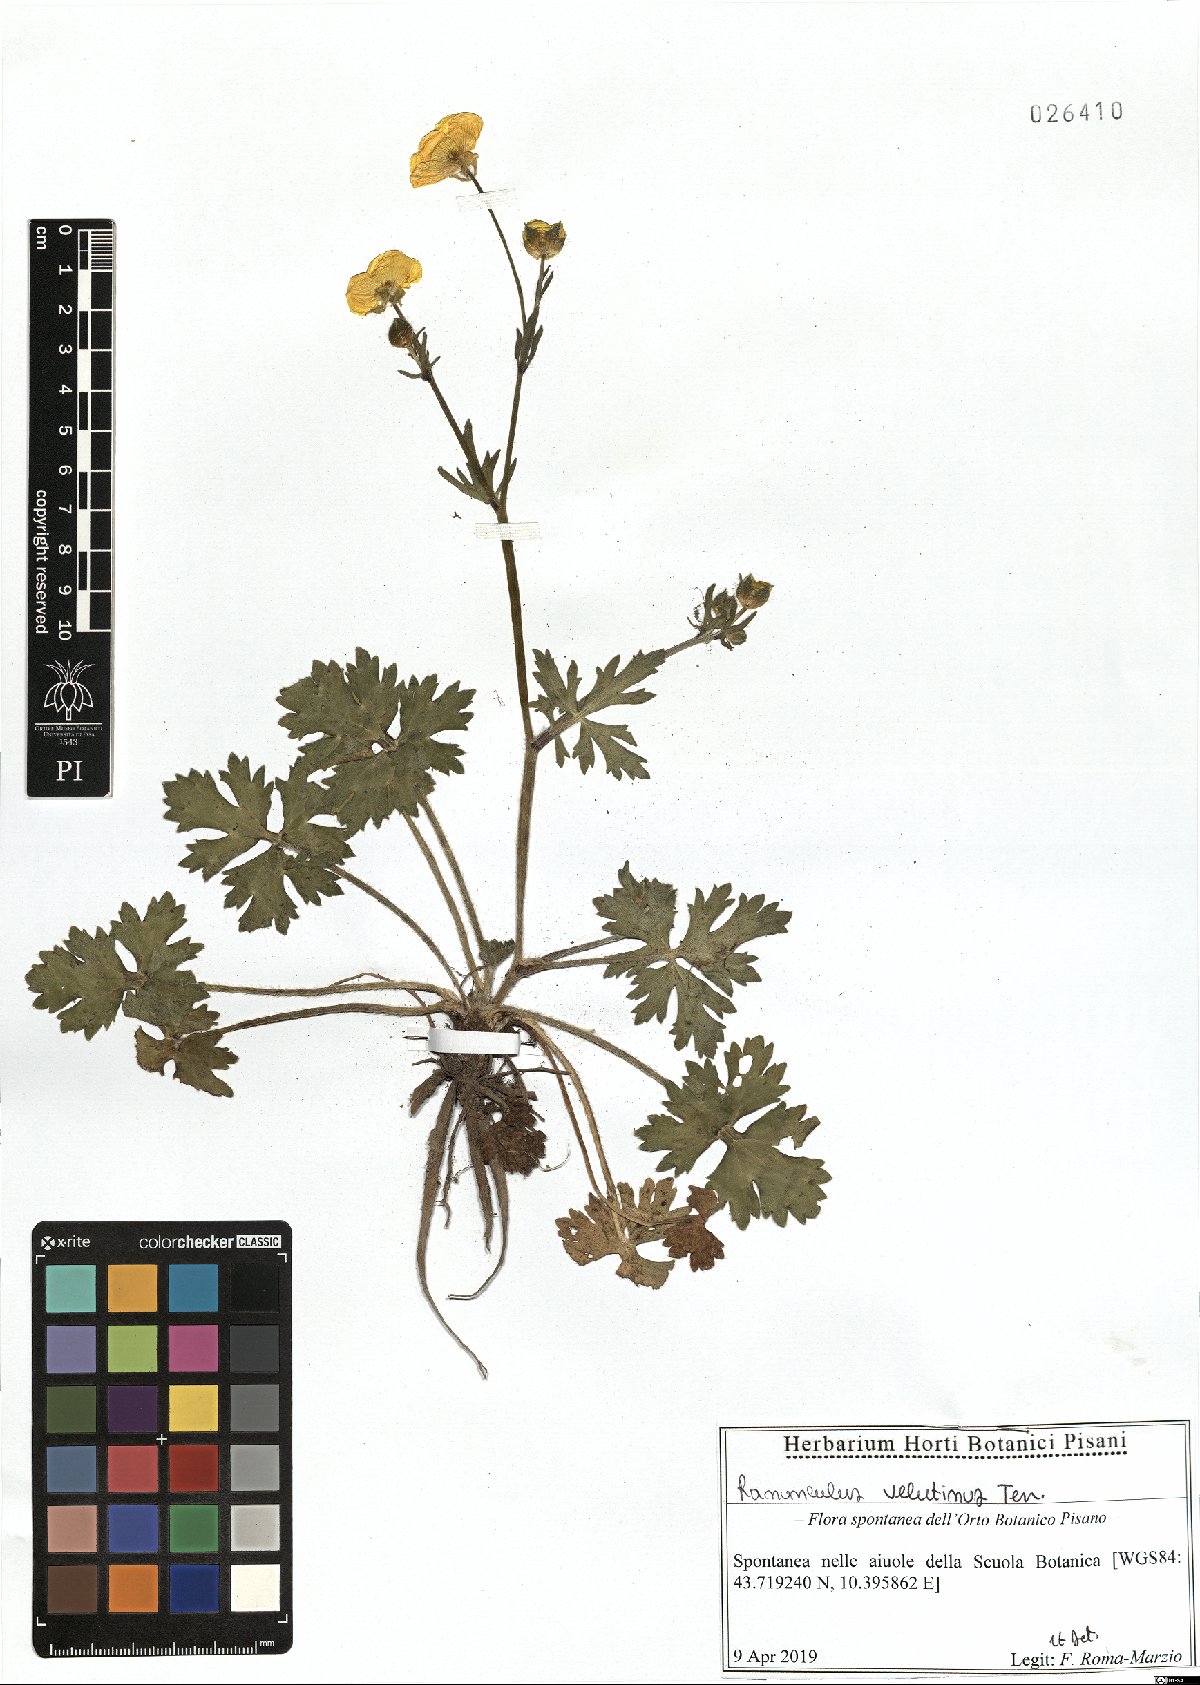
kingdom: Plantae
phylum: Tracheophyta
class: Magnoliopsida
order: Ranunculales
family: Ranunculaceae
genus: Ranunculus
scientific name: Ranunculus velutinus
